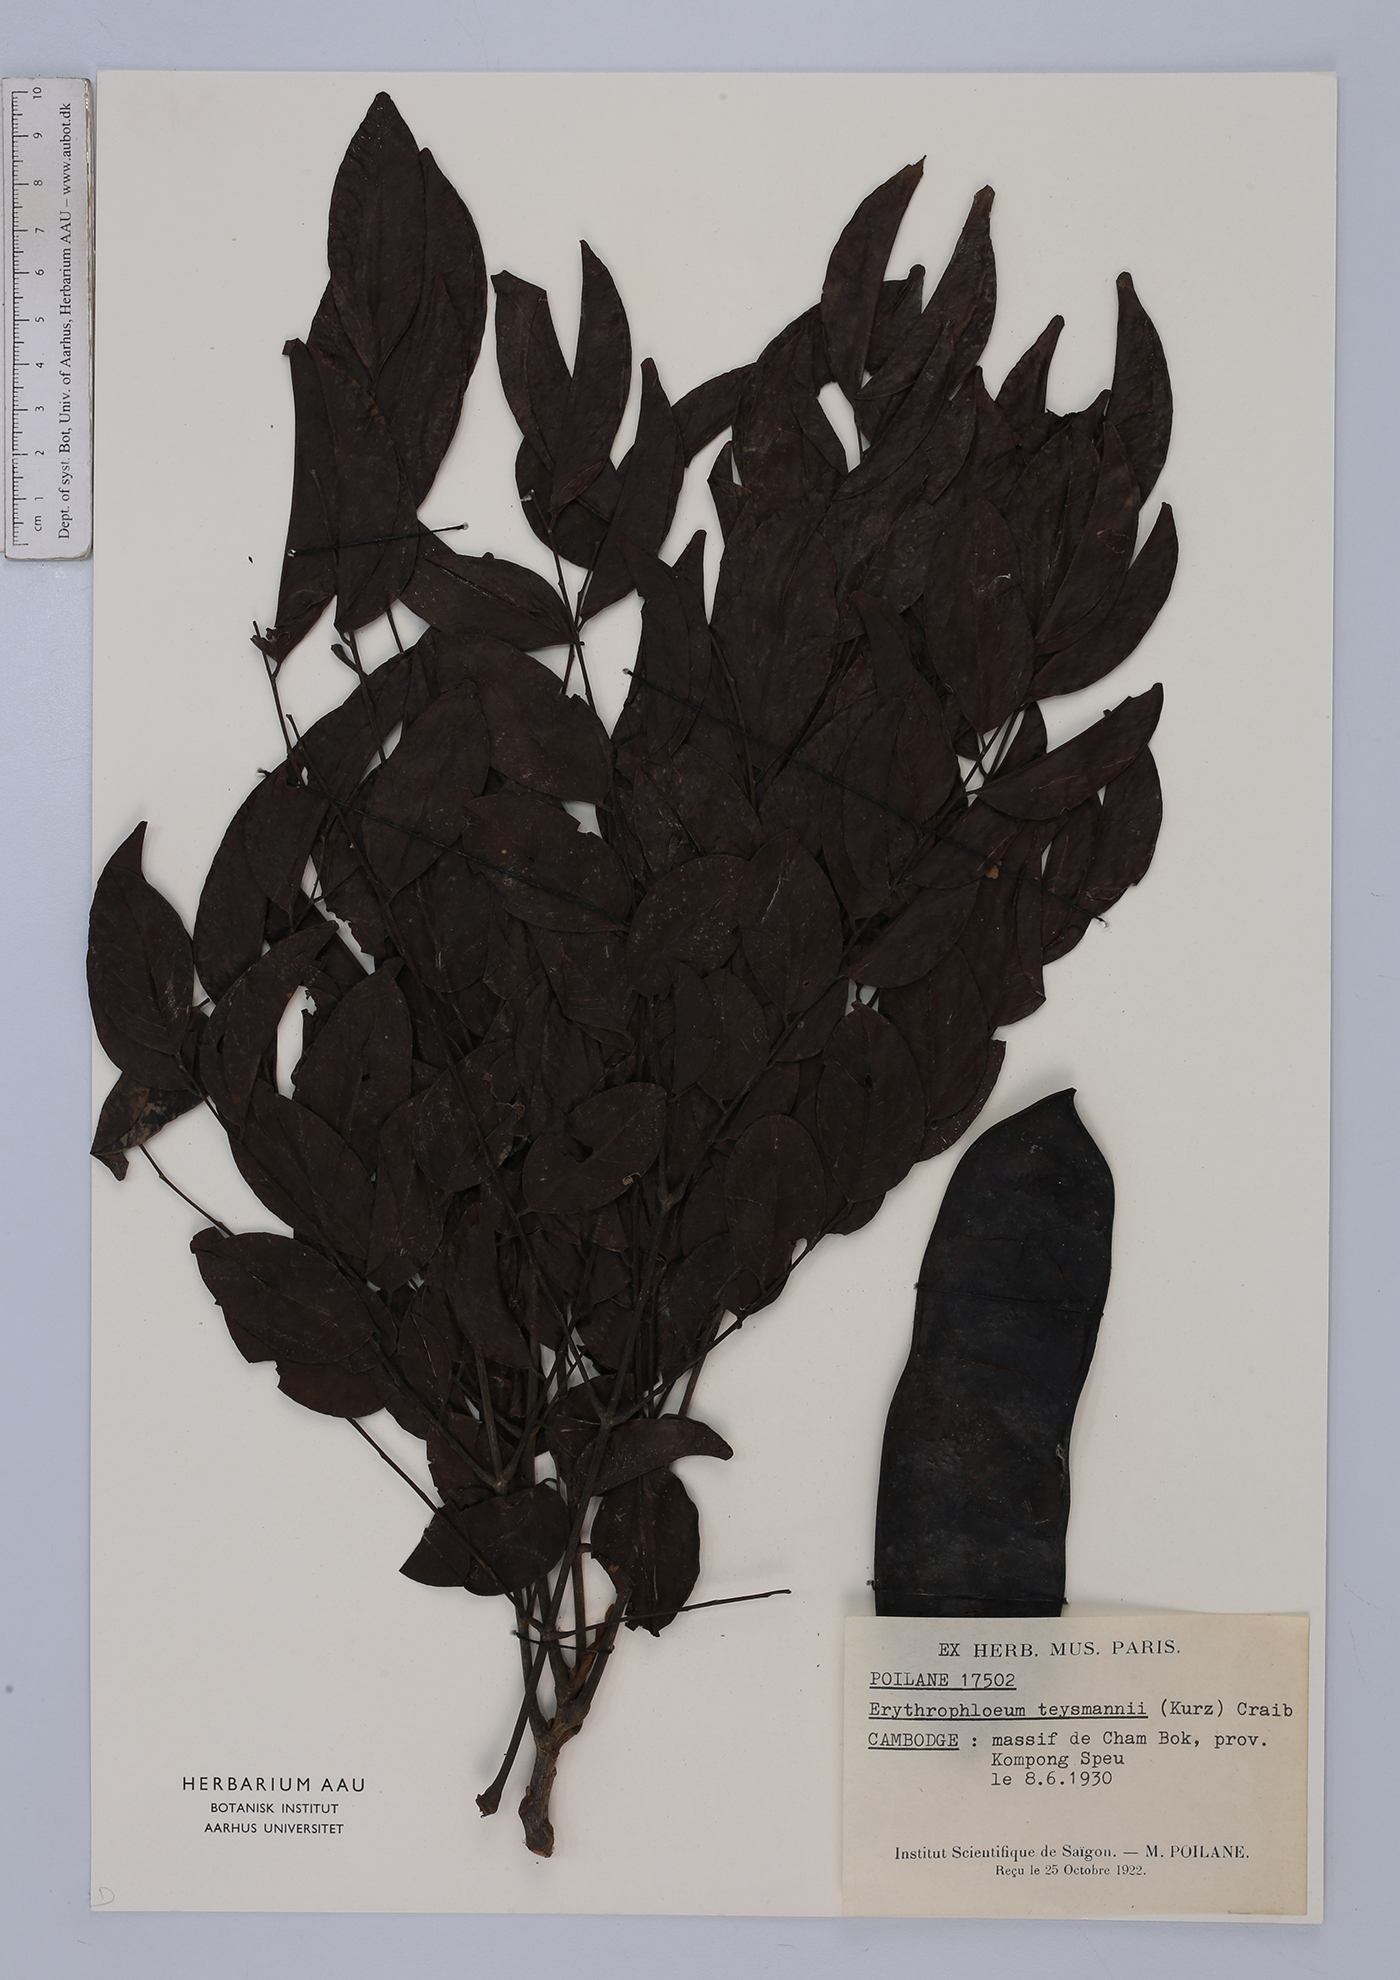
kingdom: Plantae
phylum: Tracheophyta
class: Magnoliopsida
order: Fabales
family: Fabaceae
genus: Erythrophleum
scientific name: Erythrophleum teysmannii
